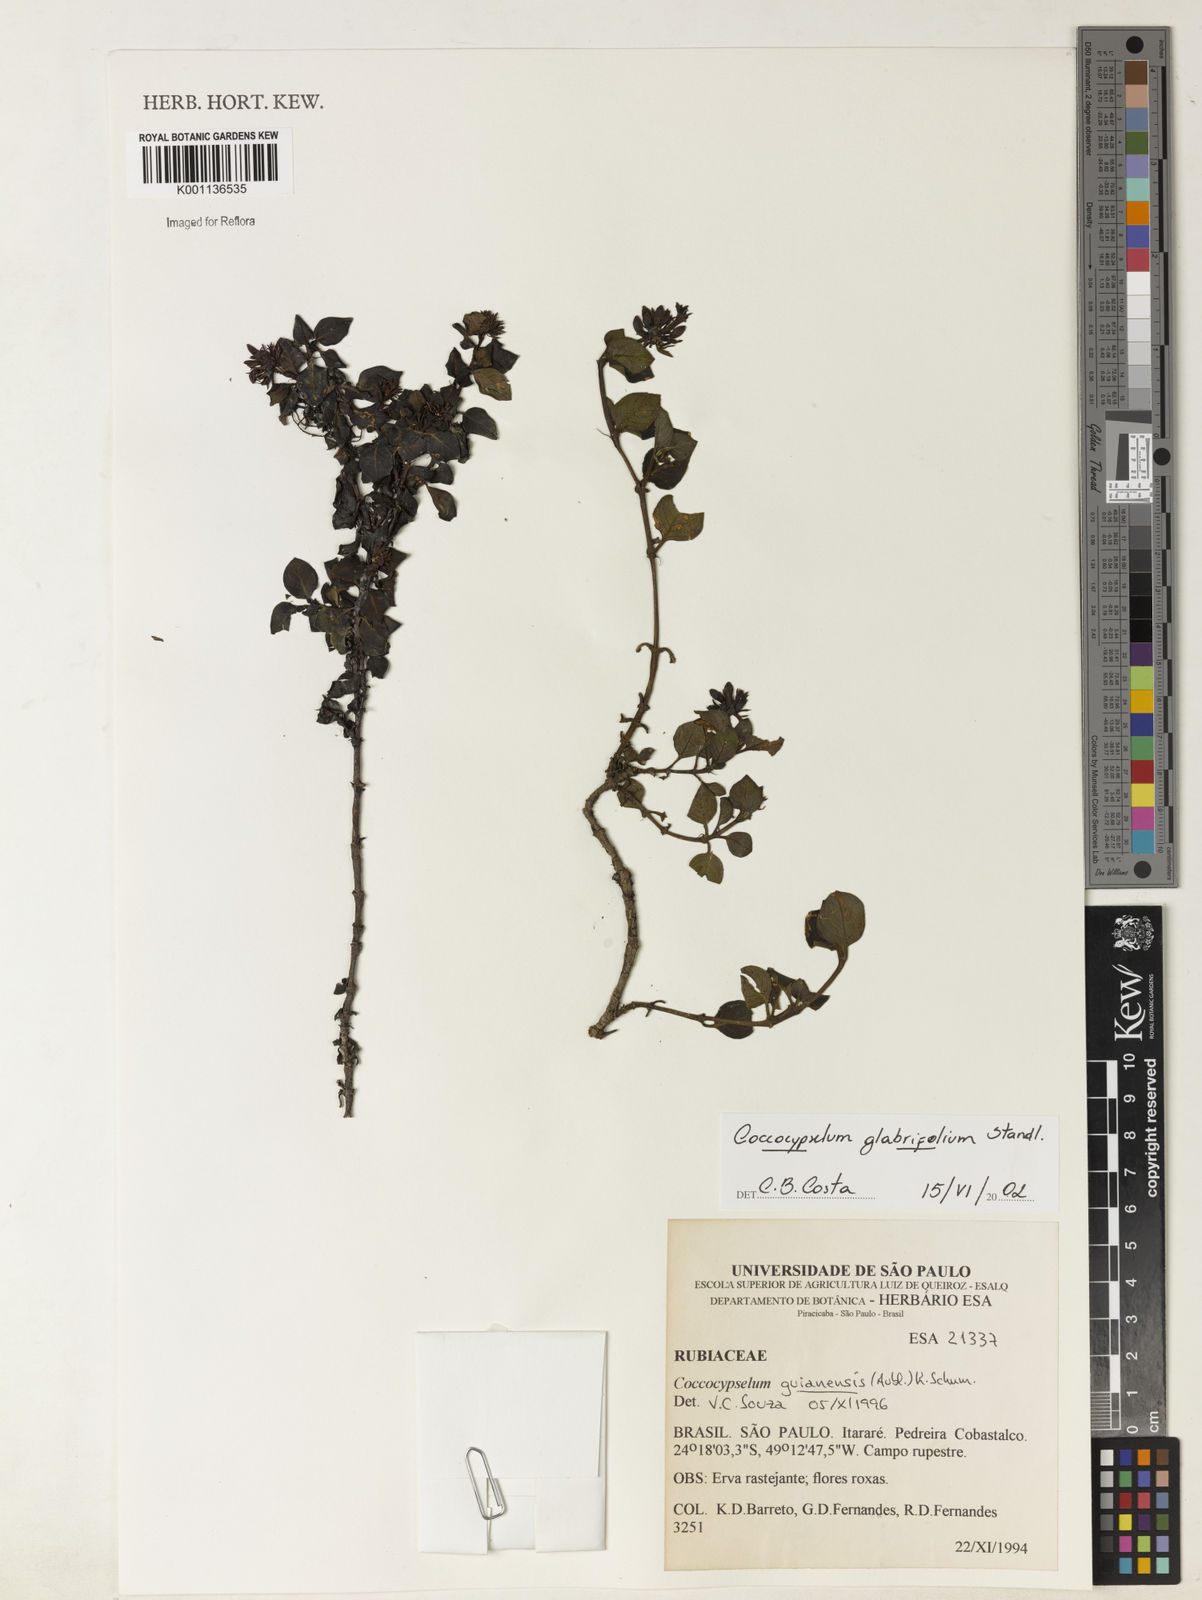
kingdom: Plantae
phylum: Tracheophyta
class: Magnoliopsida
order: Gentianales
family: Rubiaceae
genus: Coccocypselum
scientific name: Coccocypselum glabrifolium
